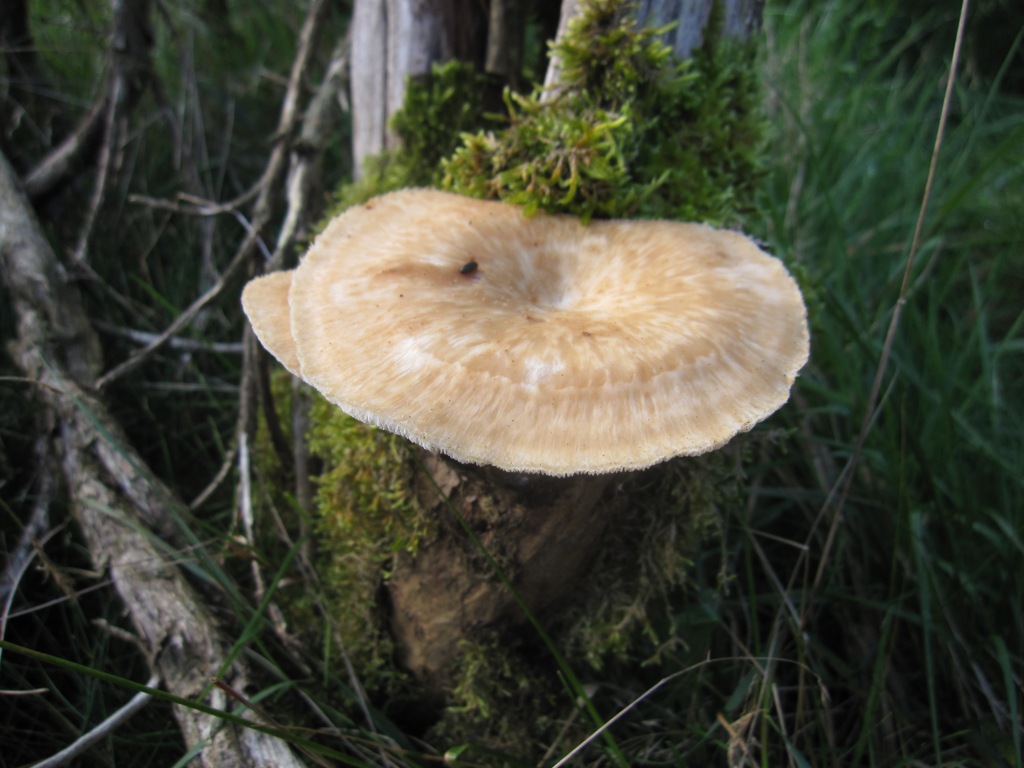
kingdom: Fungi
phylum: Basidiomycota
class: Agaricomycetes
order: Polyporales
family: Polyporaceae
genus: Polyporus
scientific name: Polyporus tuberaster
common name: knoldet stilkporesvamp
